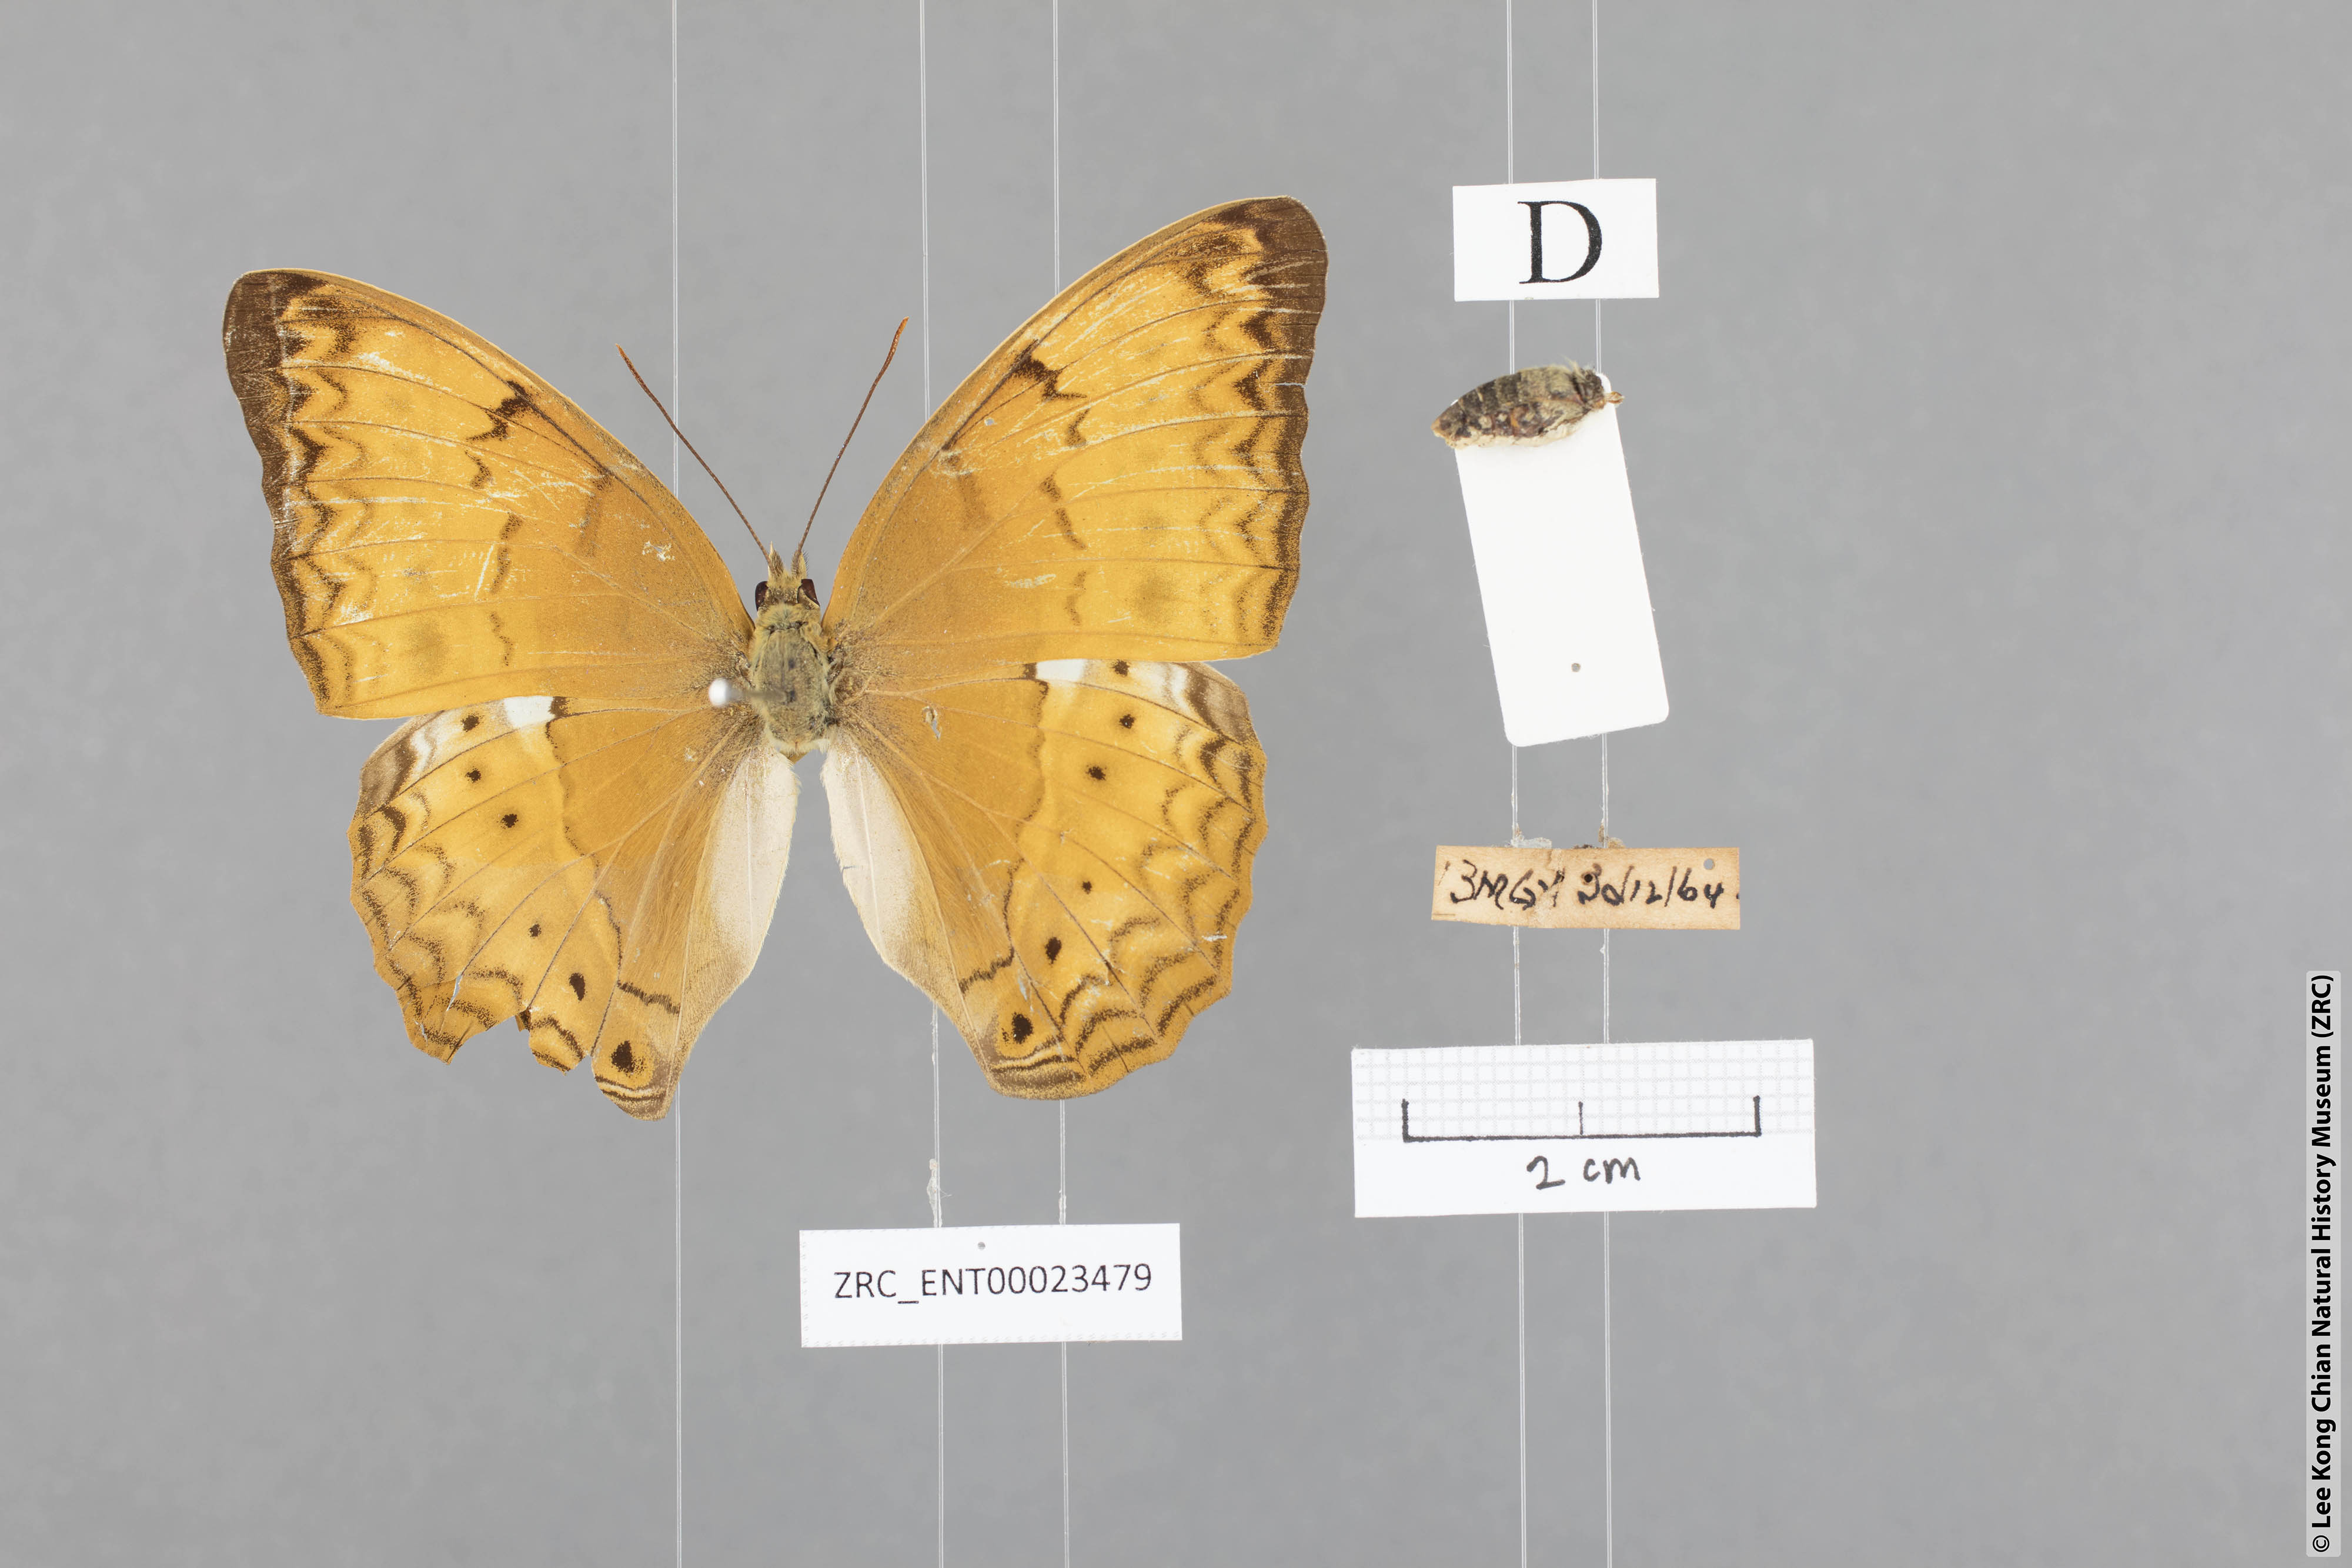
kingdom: Animalia
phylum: Arthropoda
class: Insecta
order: Lepidoptera
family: Nymphalidae
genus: Cirrochroa
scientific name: Cirrochroa tyche
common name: Common yeoman
